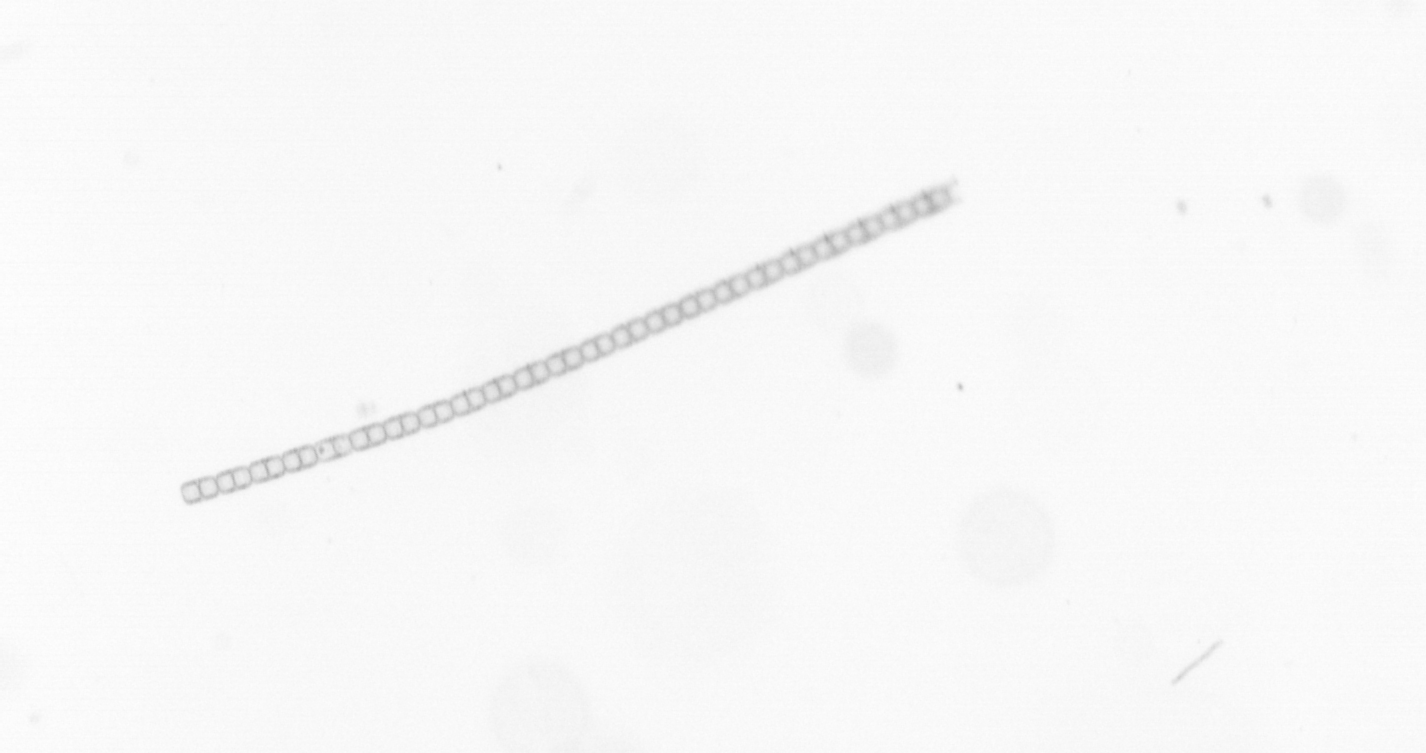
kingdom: Chromista
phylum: Ochrophyta
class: Bacillariophyceae
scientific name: Bacillariophyceae
